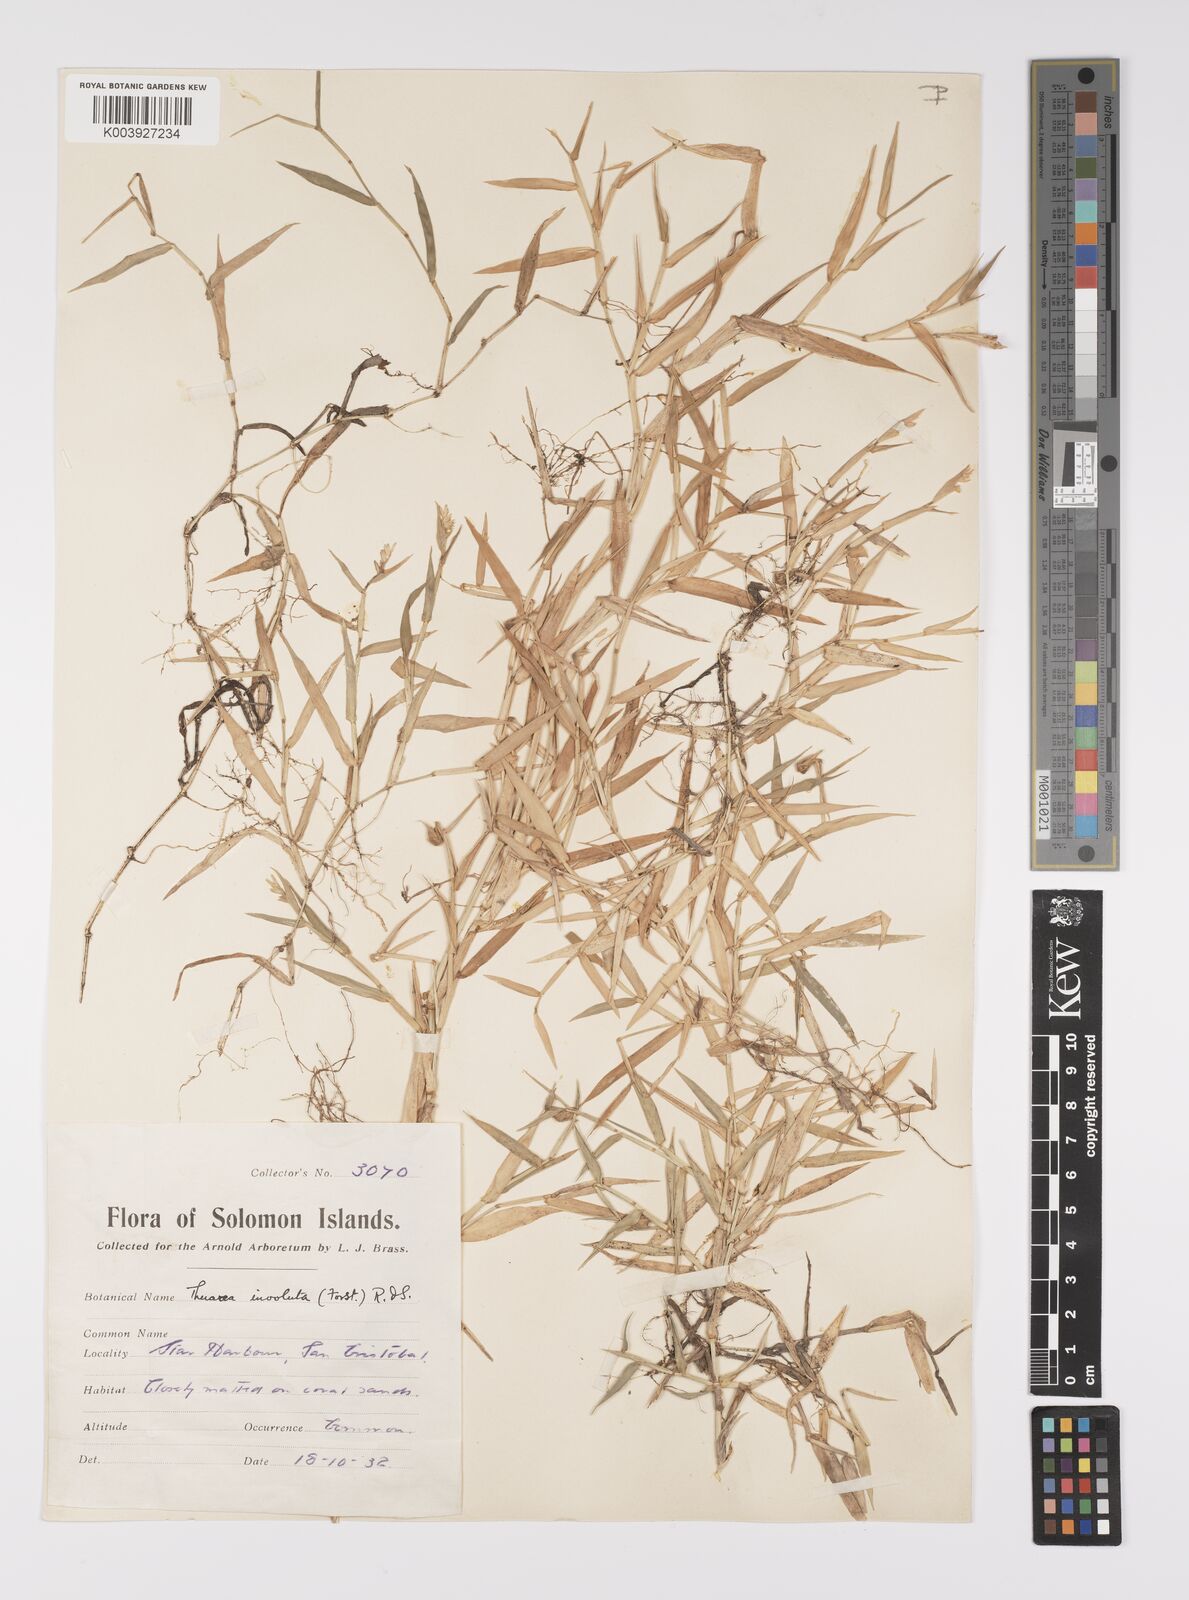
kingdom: Plantae
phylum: Tracheophyta
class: Liliopsida
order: Poales
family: Poaceae
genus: Thuarea
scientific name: Thuarea involuta
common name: Tropical beach grass
